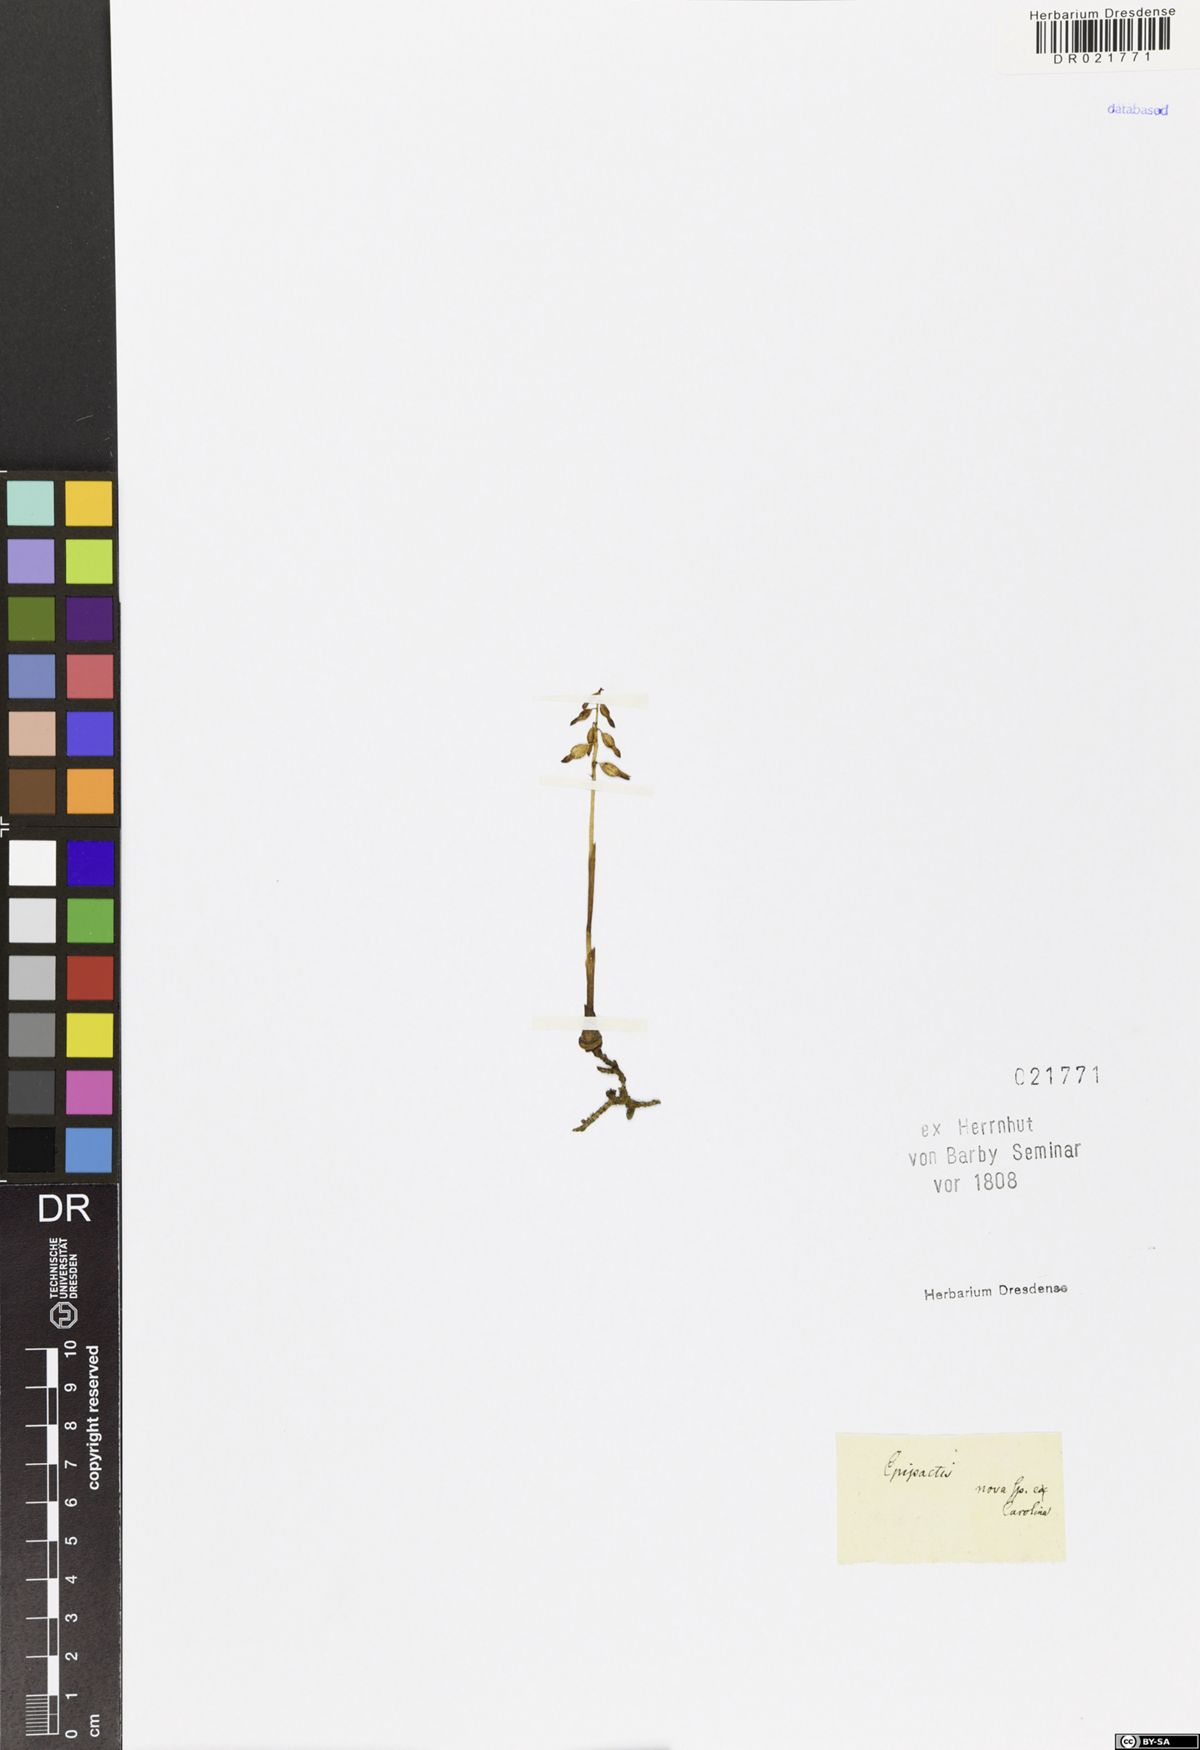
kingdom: Plantae
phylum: Tracheophyta
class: Liliopsida
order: Asparagales
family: Orchidaceae
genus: Corallorhiza
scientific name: Corallorhiza odontorhiza
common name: Autumn coralroot
